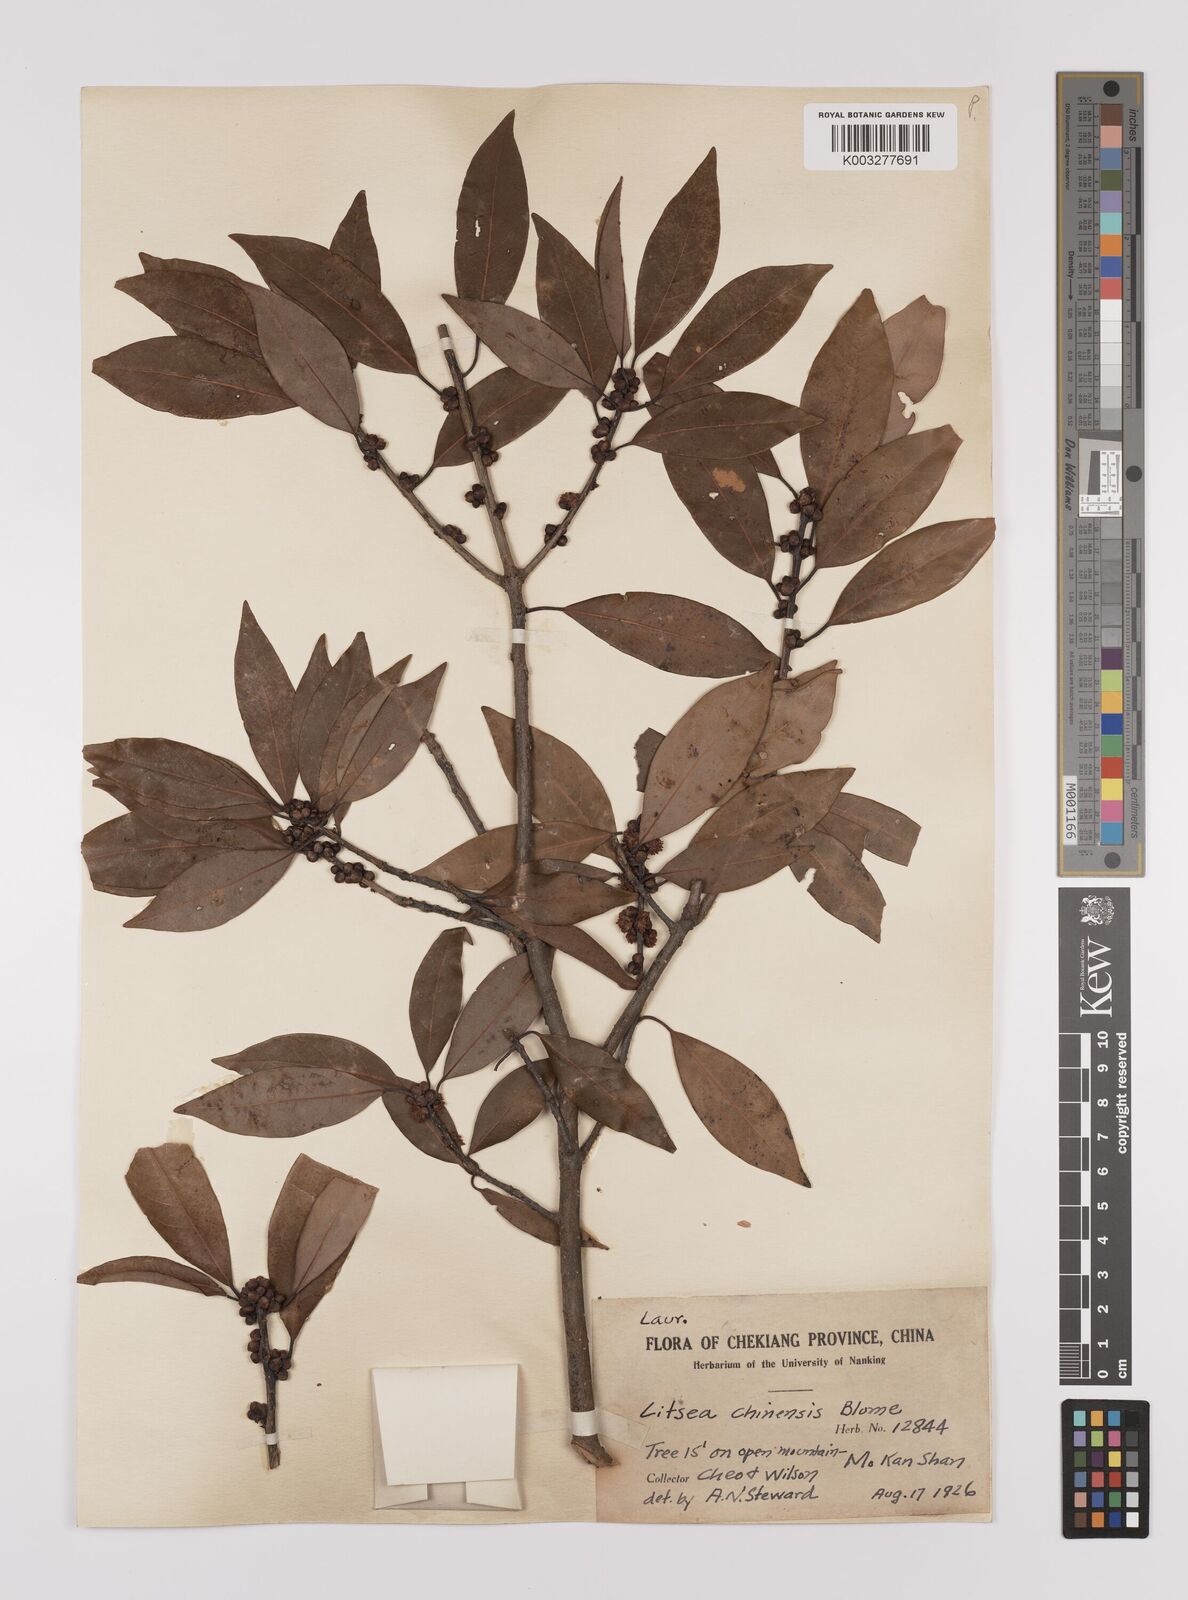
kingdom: Plantae
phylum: Tracheophyta
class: Magnoliopsida
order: Laurales
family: Lauraceae
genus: Litsea
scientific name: Litsea rotundifolia
